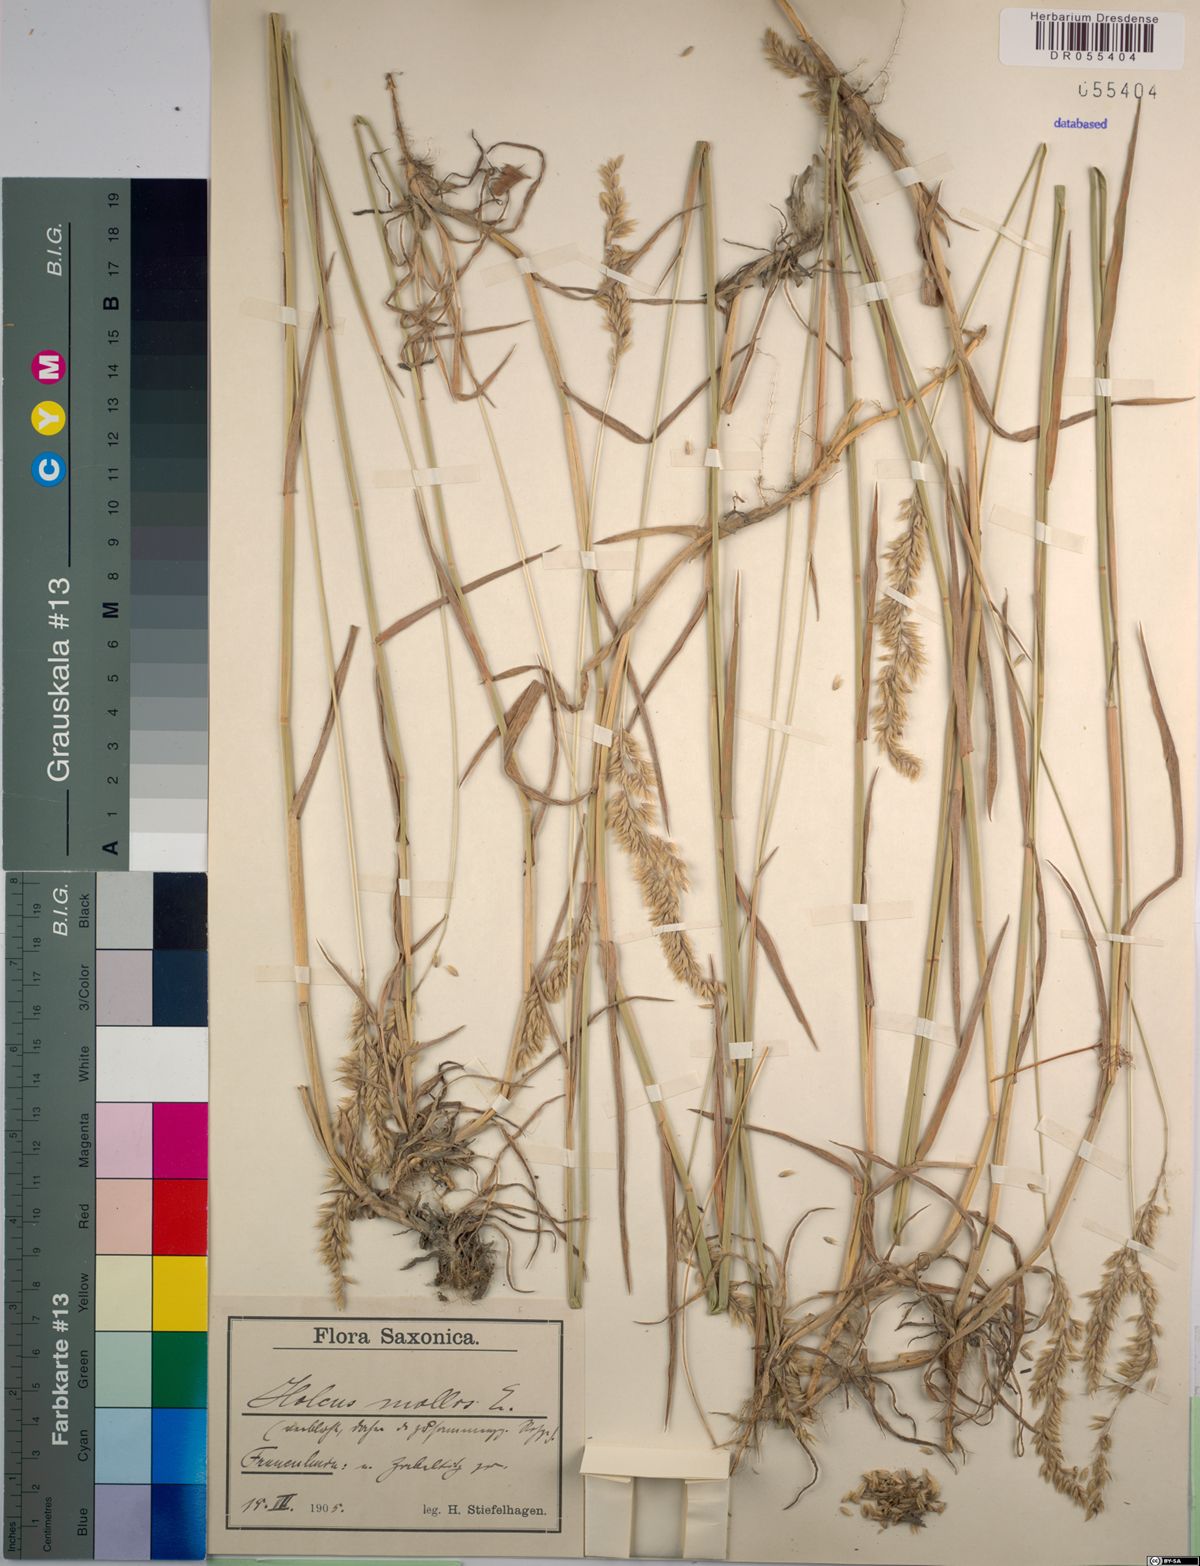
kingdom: Plantae
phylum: Tracheophyta
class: Liliopsida
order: Poales
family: Poaceae
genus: Holcus
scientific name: Holcus mollis
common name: Creeping velvetgrass
